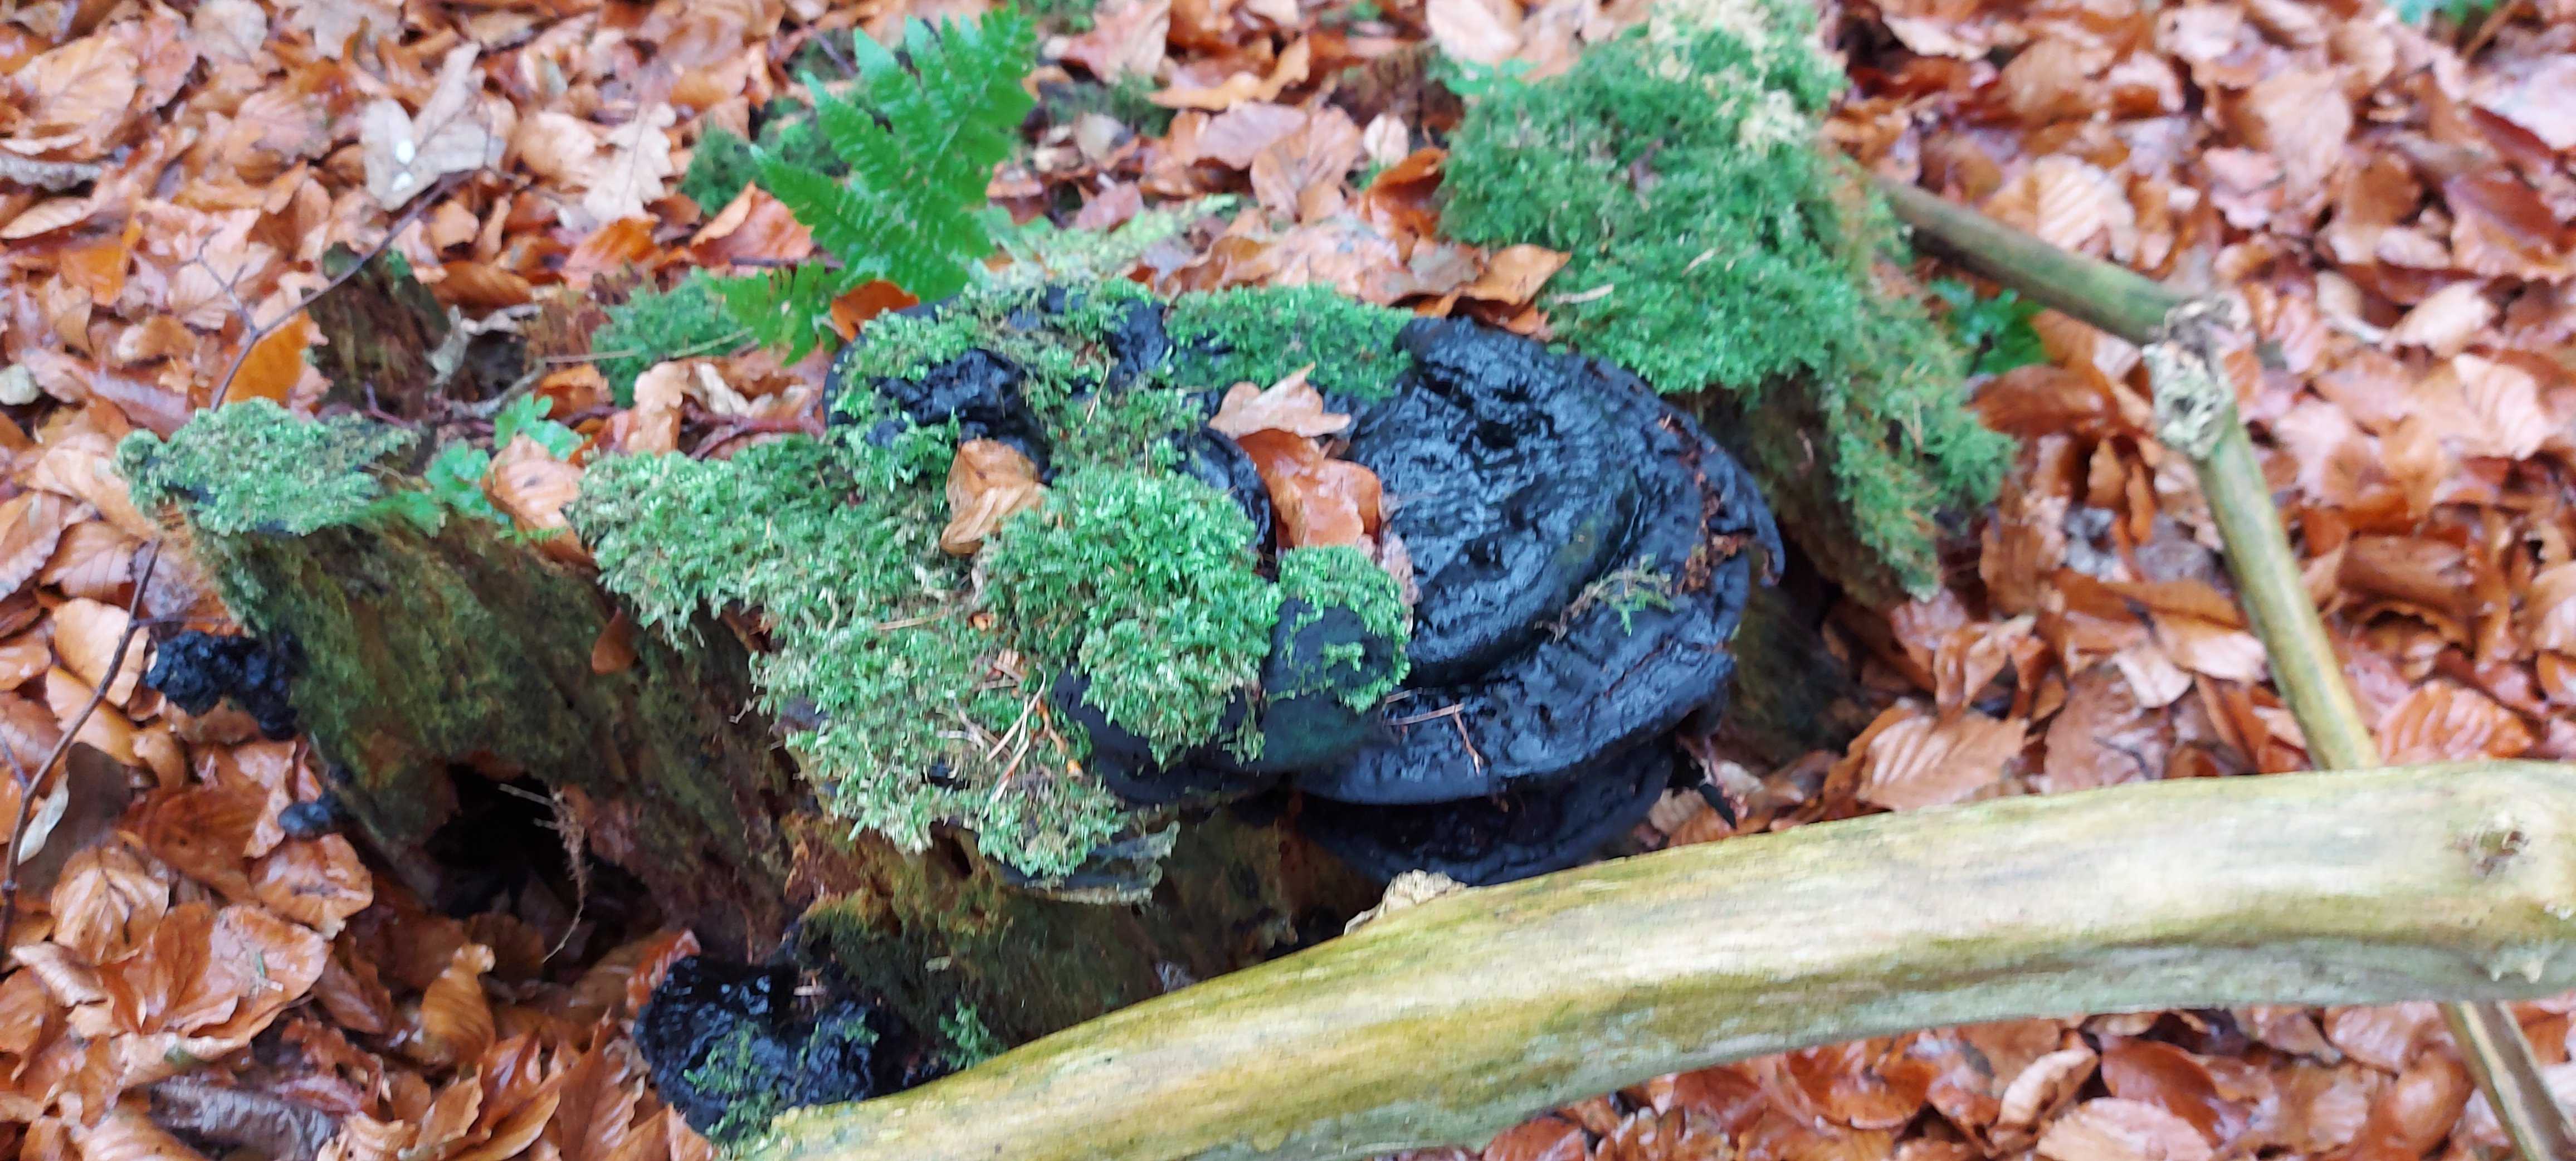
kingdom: Fungi
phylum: Basidiomycota
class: Agaricomycetes
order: Polyporales
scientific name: Polyporales
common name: poresvampordenen
